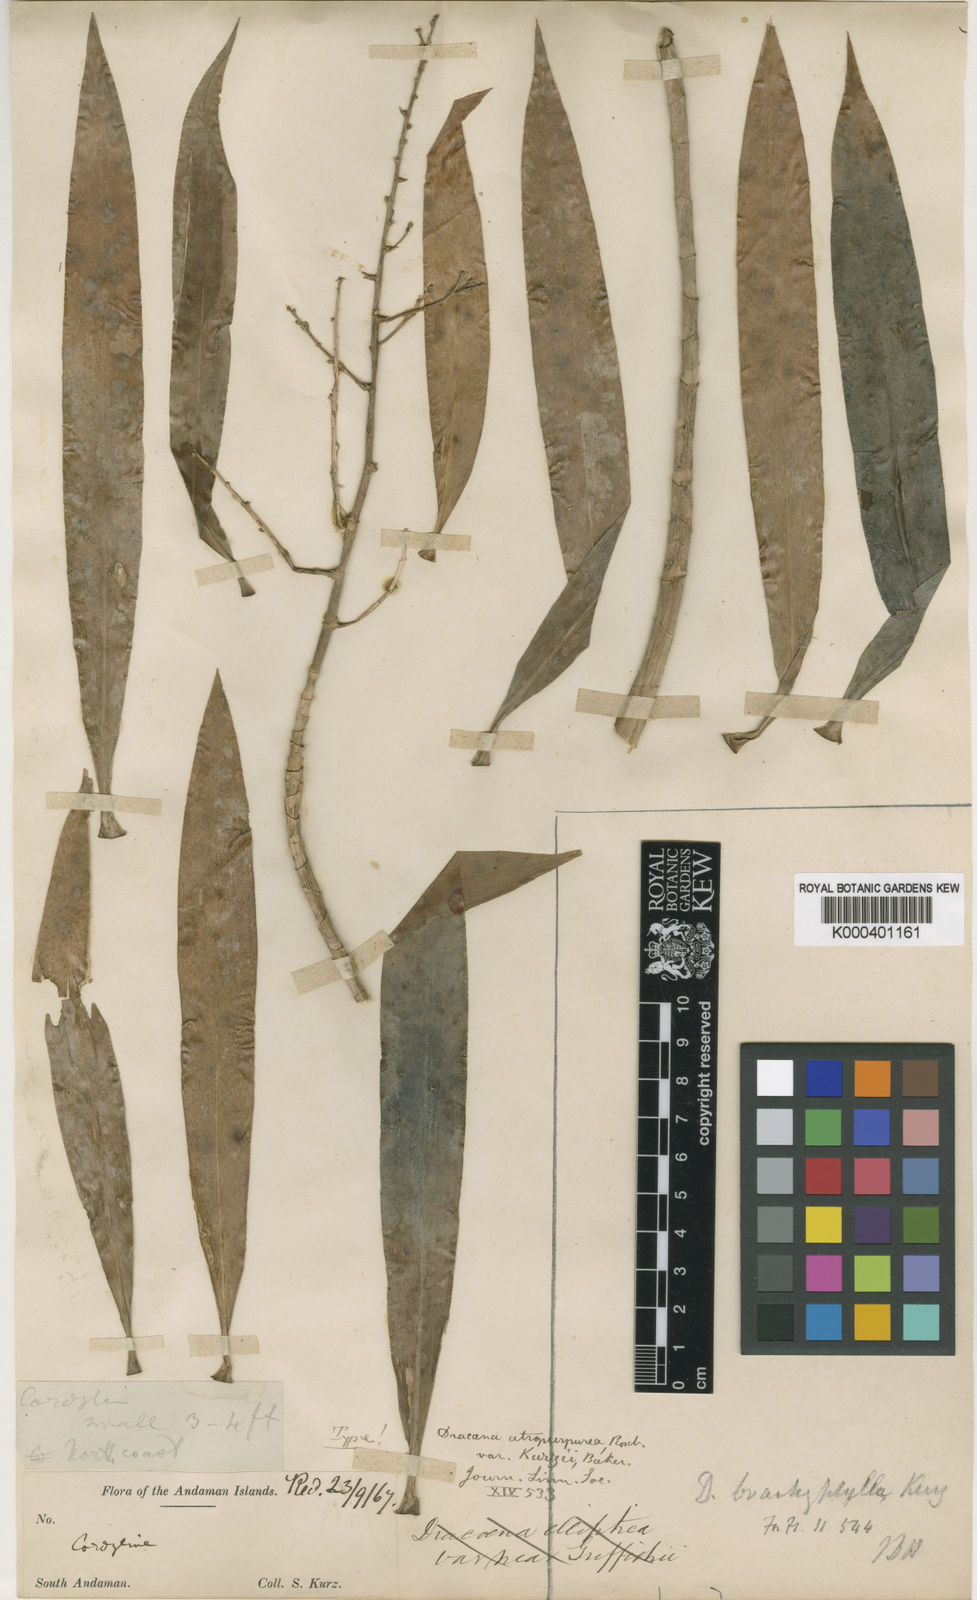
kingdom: Plantae
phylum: Tracheophyta
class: Liliopsida
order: Asparagales
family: Asparagaceae
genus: Dracaena
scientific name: Dracaena brachyphylla
